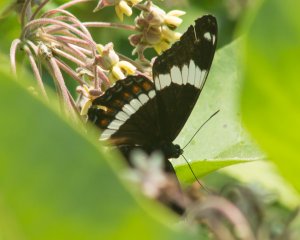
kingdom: Animalia
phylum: Arthropoda
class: Insecta
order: Lepidoptera
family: Nymphalidae
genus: Limenitis
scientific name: Limenitis arthemis
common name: Red-spotted Admiral
